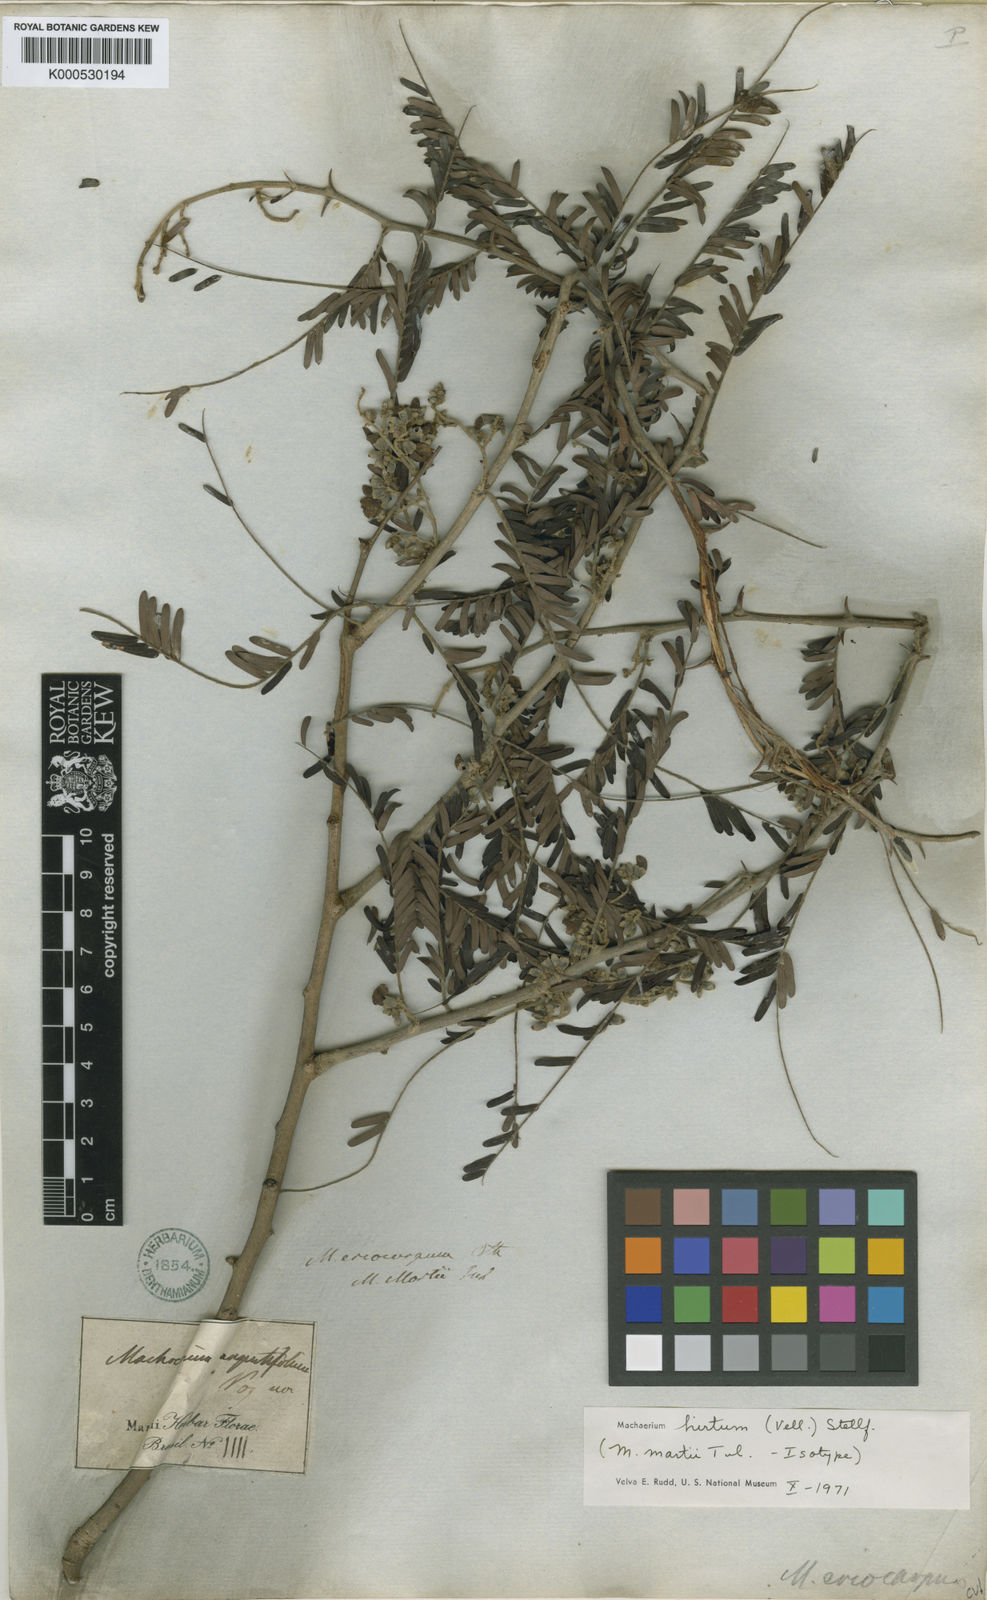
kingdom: Plantae
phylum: Tracheophyta
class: Magnoliopsida
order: Fabales
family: Fabaceae
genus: Machaerium
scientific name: Machaerium hirtum
